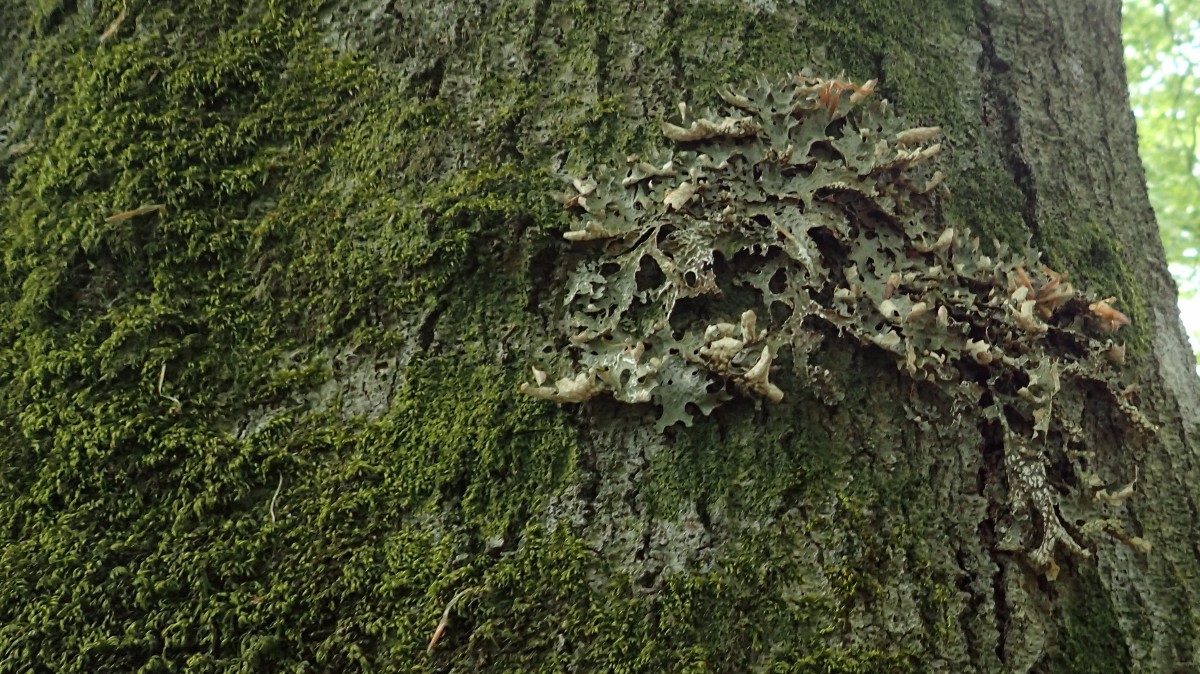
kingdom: Fungi
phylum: Ascomycota
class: Lecanoromycetes
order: Peltigerales
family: Lobariaceae
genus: Lobaria
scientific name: Lobaria pulmonaria
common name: almindelig lungelav
